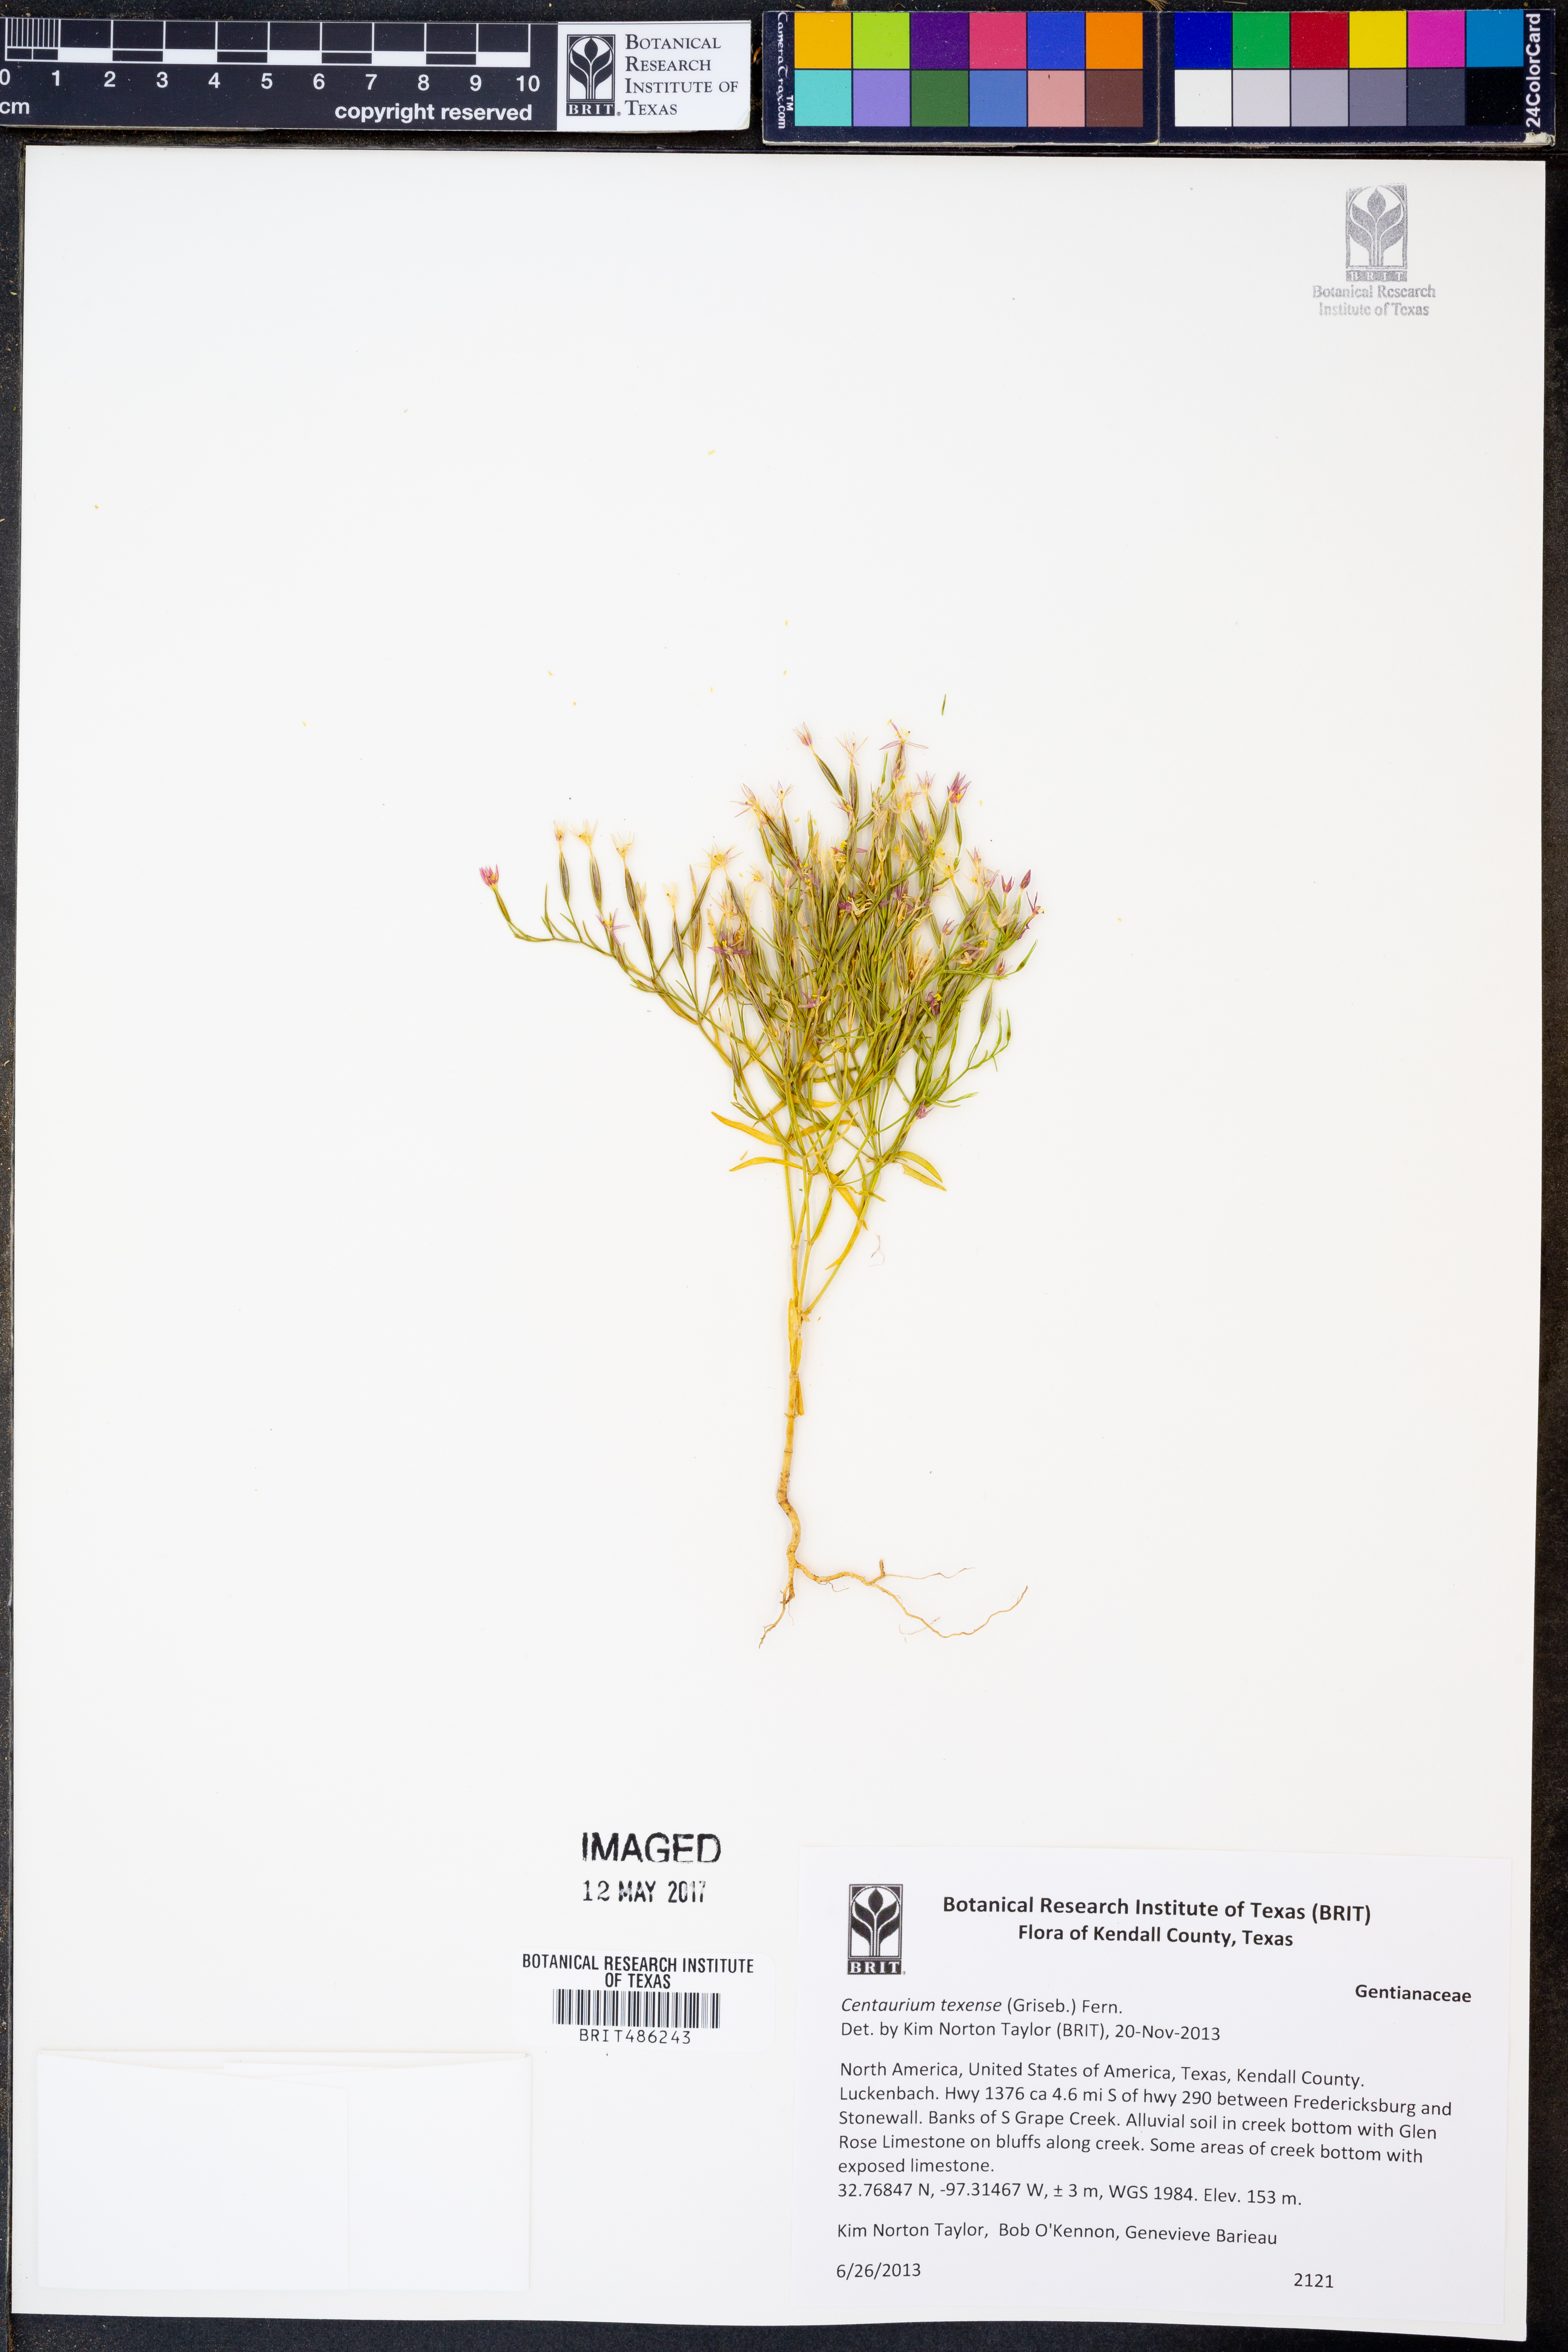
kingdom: Plantae
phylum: Tracheophyta
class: Magnoliopsida
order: Gentianales
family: Gentianaceae
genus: Zeltnera
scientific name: Zeltnera texensis
